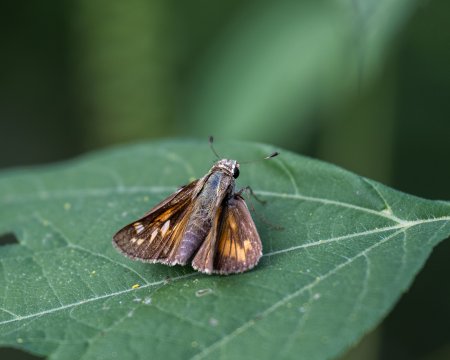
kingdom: Animalia
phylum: Arthropoda
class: Insecta
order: Lepidoptera
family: Hesperiidae
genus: Atalopedes
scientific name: Atalopedes campestris
